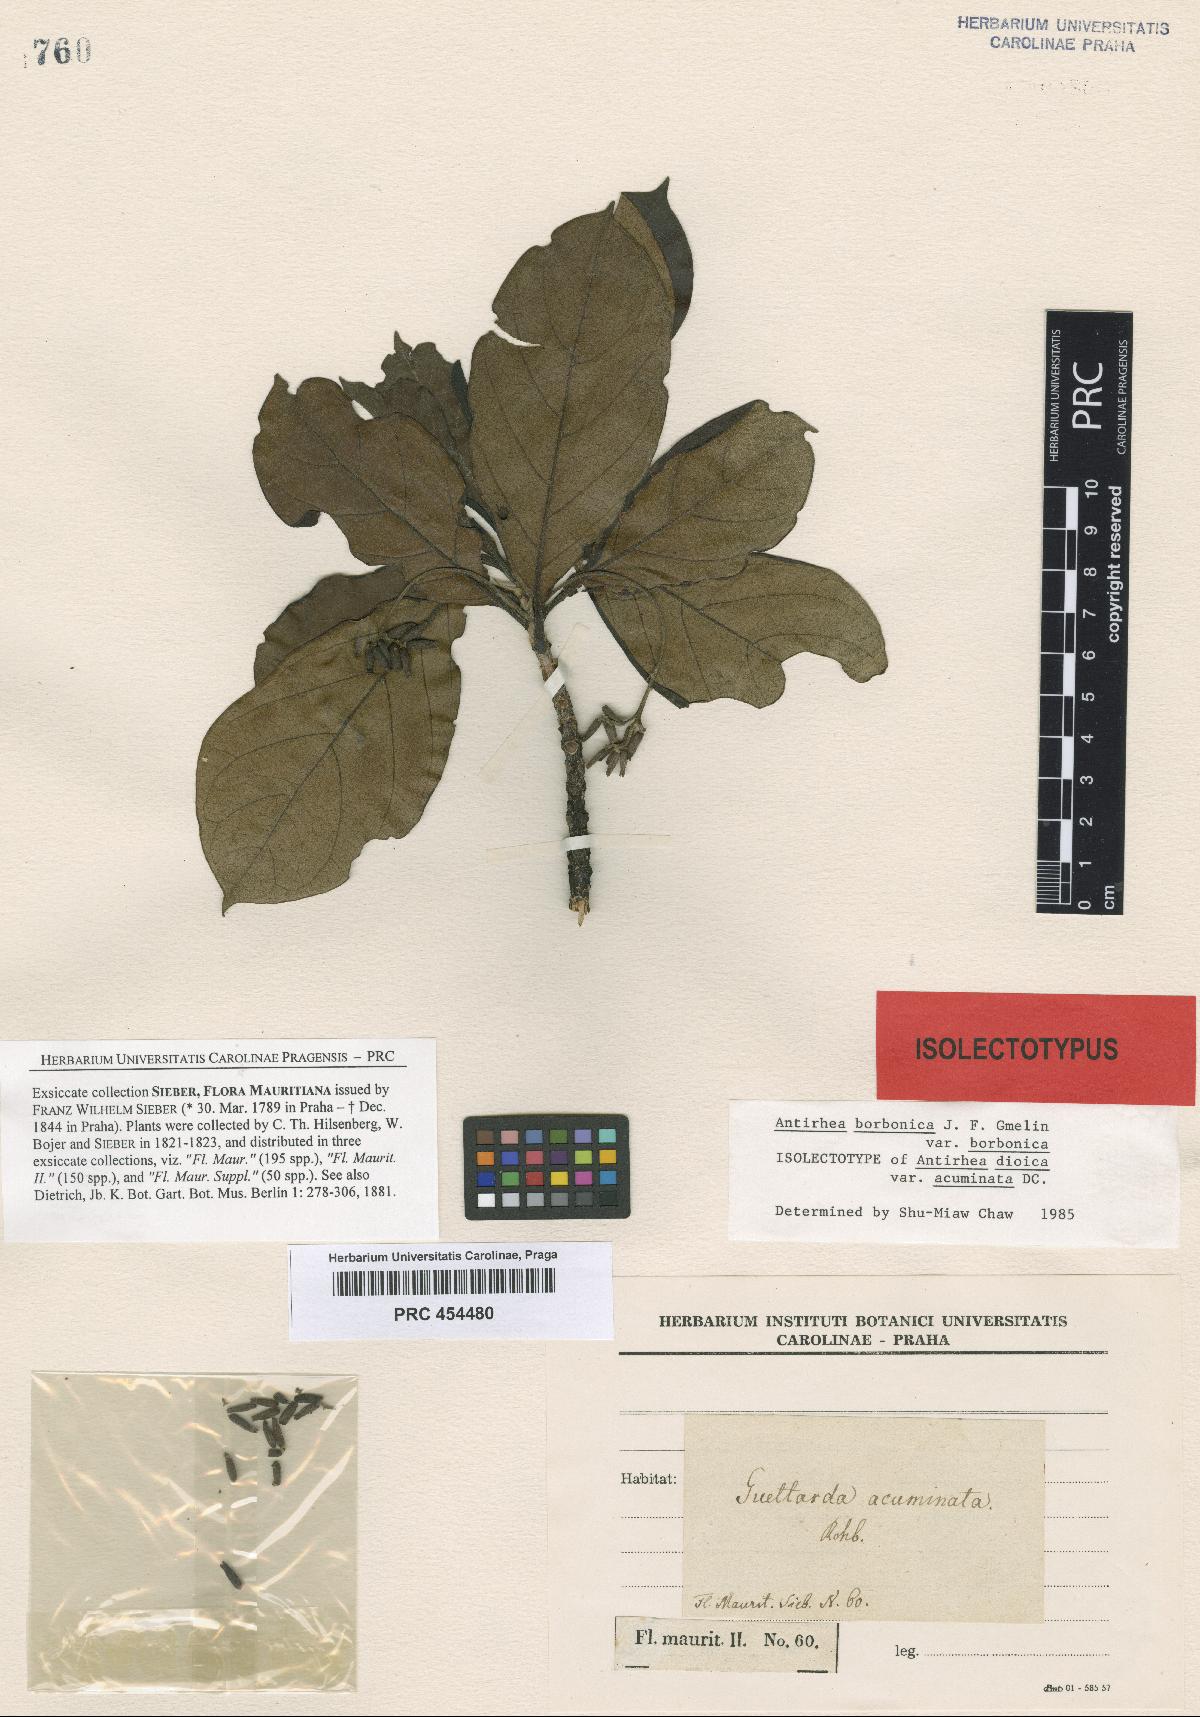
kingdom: Plantae
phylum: Tracheophyta
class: Magnoliopsida
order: Gentianales
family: Rubiaceae
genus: Antirhea
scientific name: Antirhea borbonica
